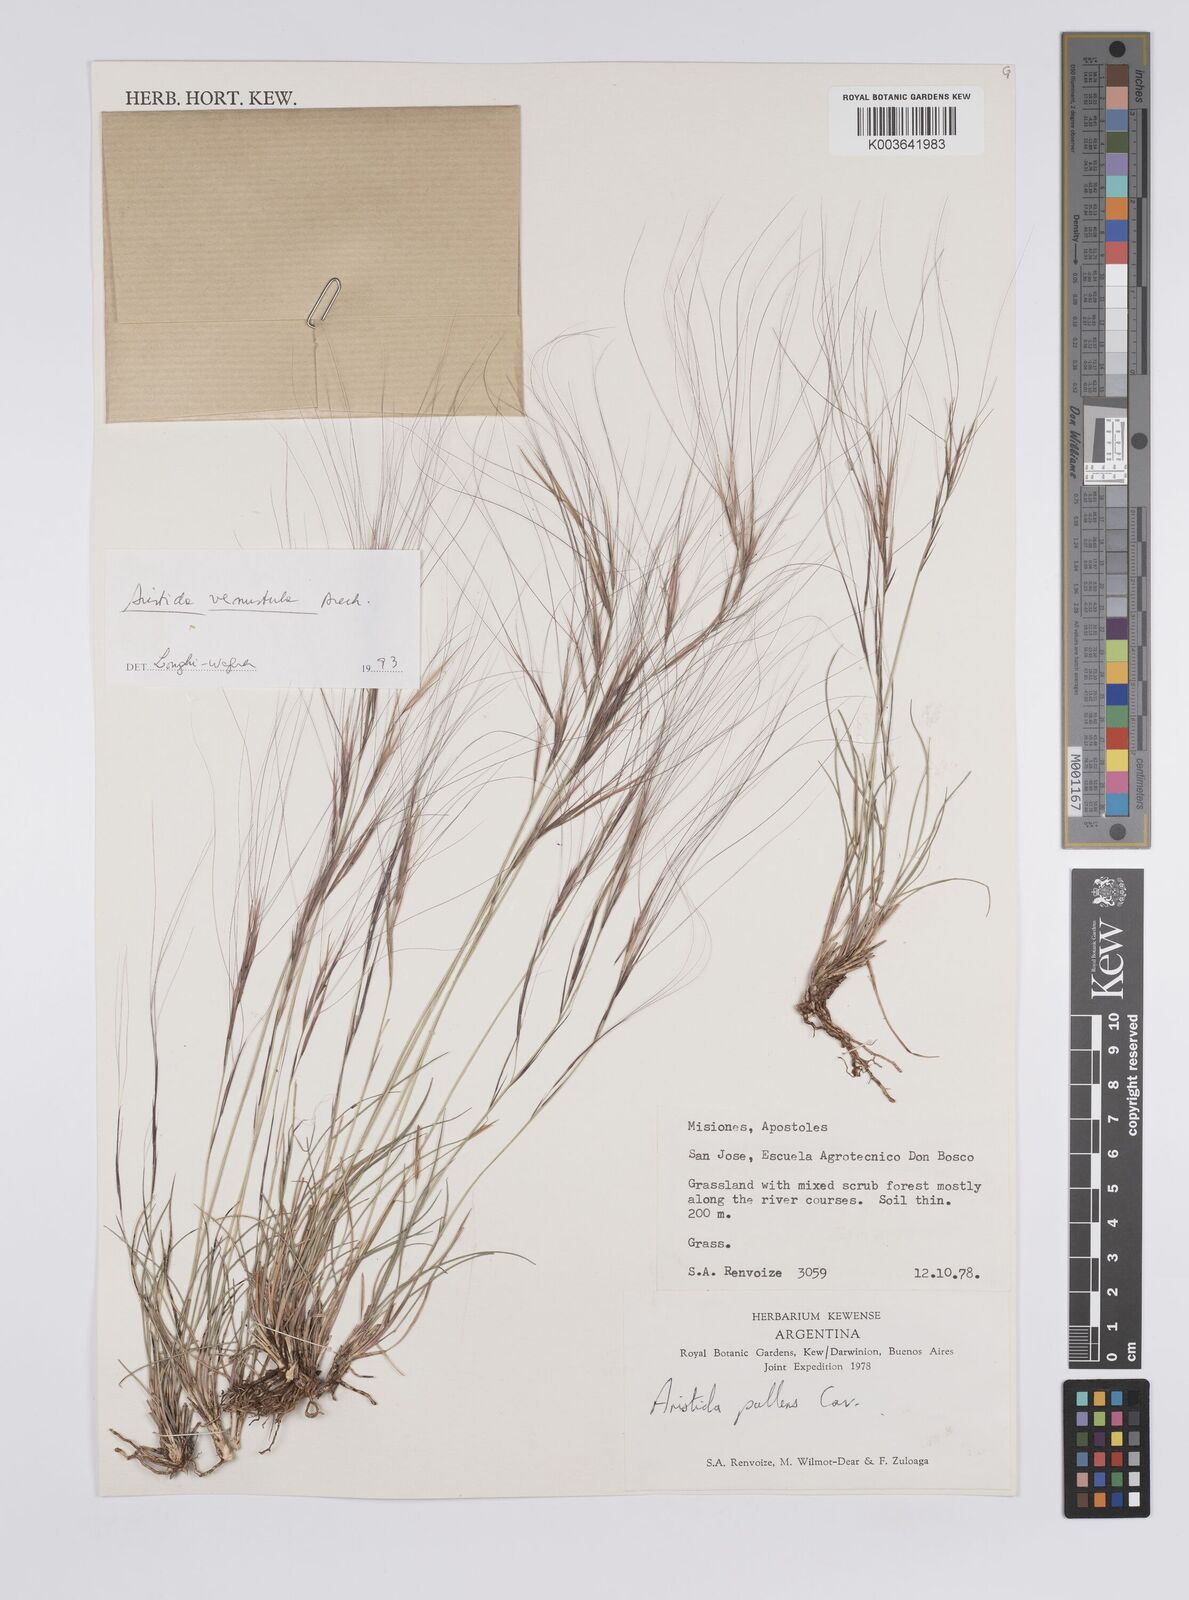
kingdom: Plantae
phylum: Tracheophyta
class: Liliopsida
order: Poales
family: Poaceae
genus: Aristida
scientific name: Aristida venustula
